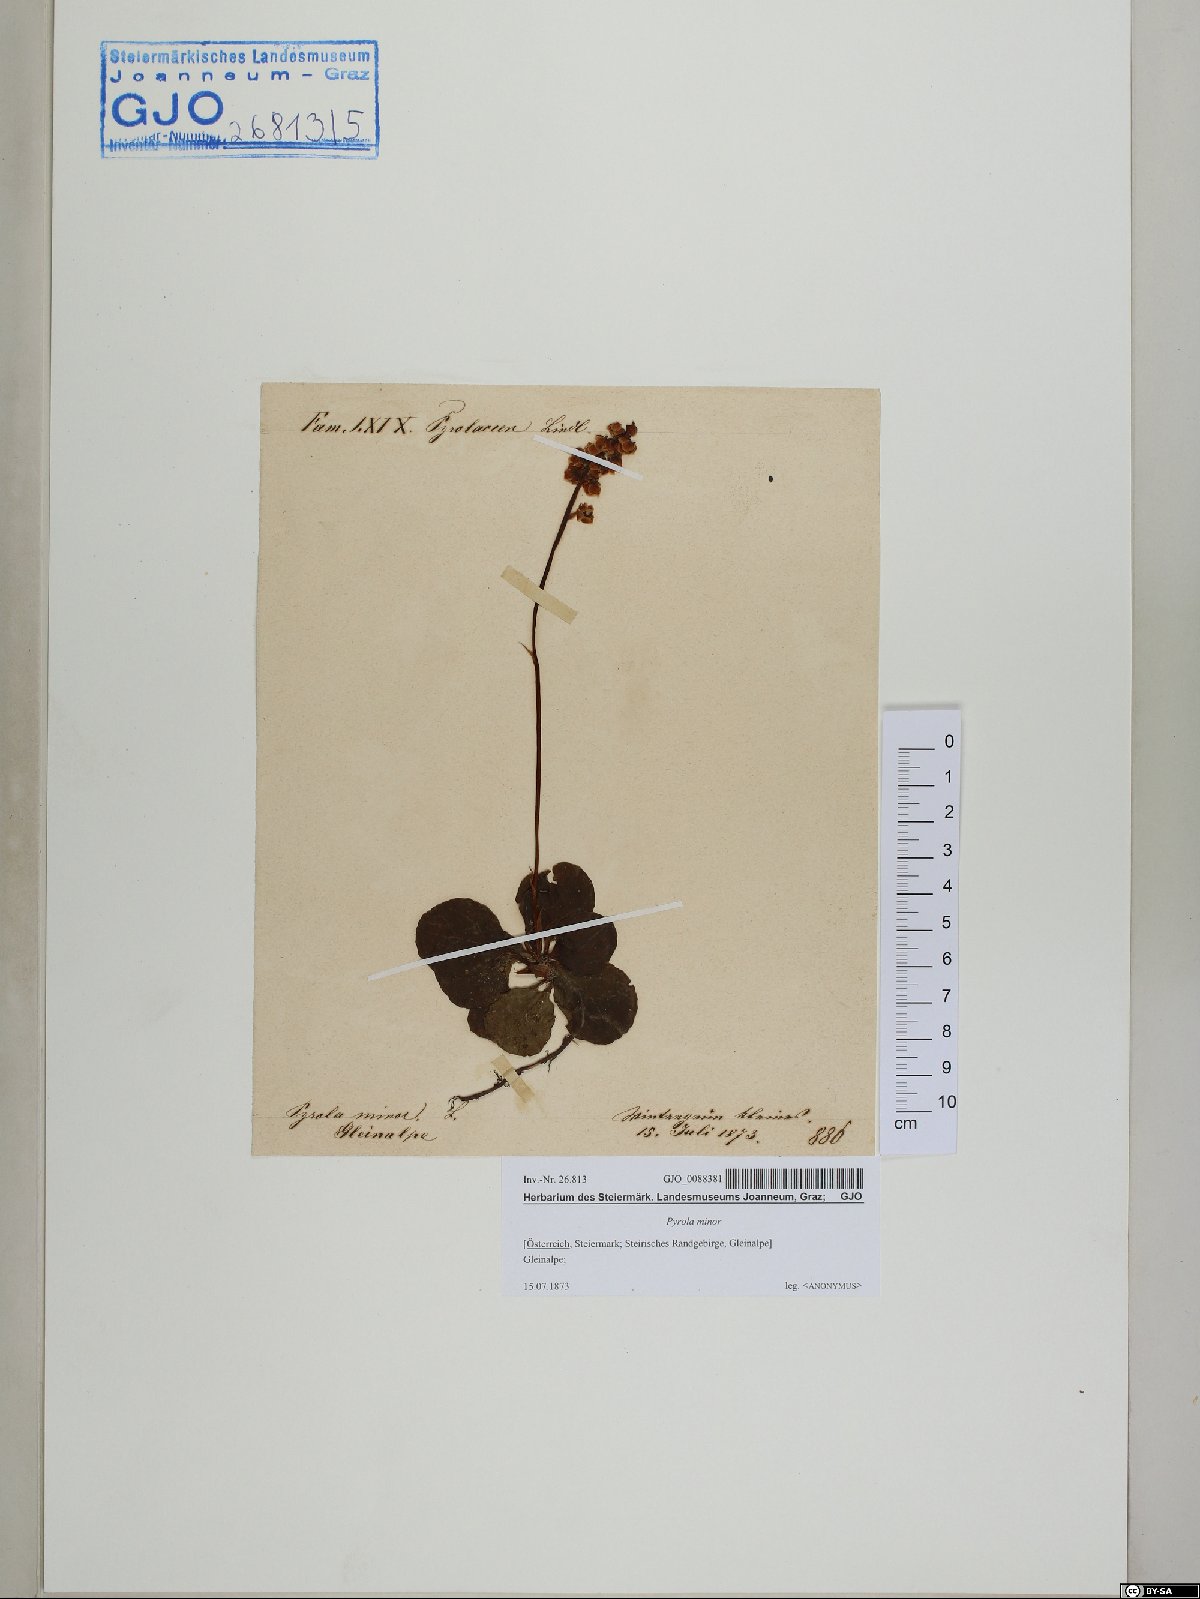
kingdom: Plantae
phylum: Tracheophyta
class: Magnoliopsida
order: Ericales
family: Ericaceae
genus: Pyrola
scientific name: Pyrola minor
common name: Common wintergreen
